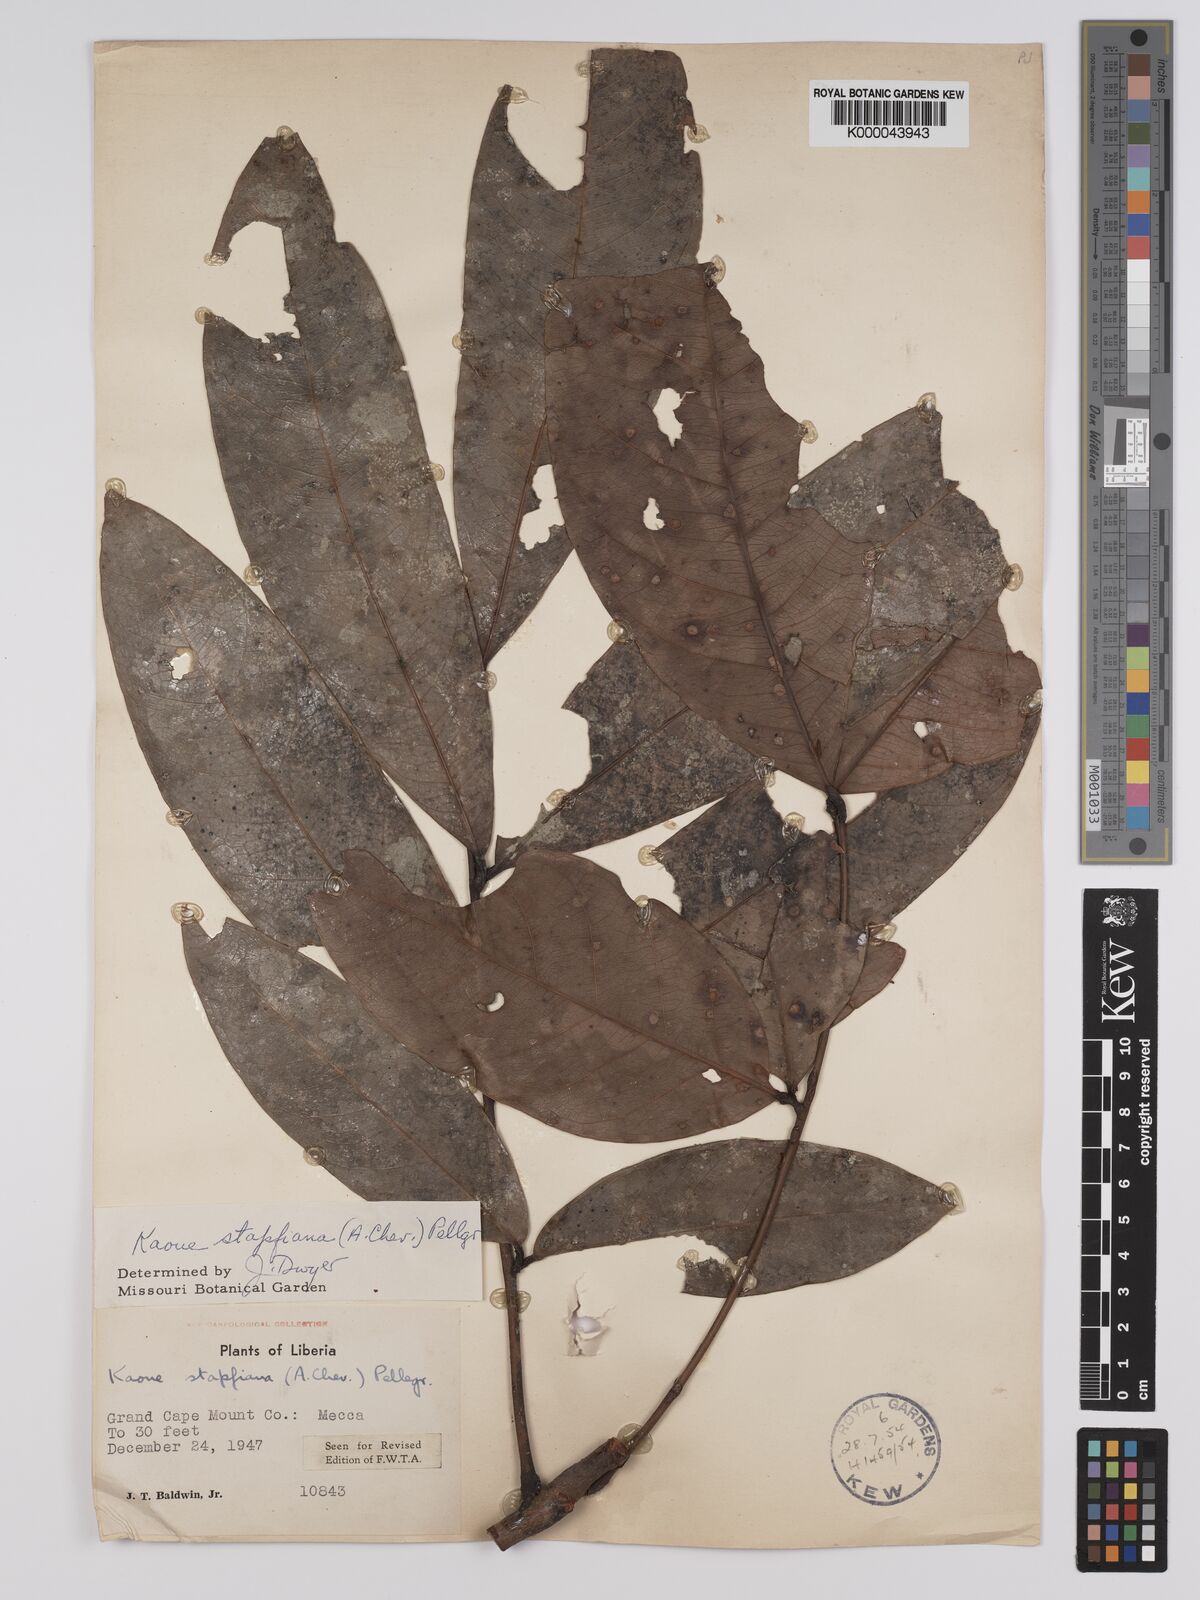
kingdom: Plantae
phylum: Tracheophyta
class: Magnoliopsida
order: Fabales
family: Fabaceae
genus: Stachyothyrsus
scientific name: Stachyothyrsus
